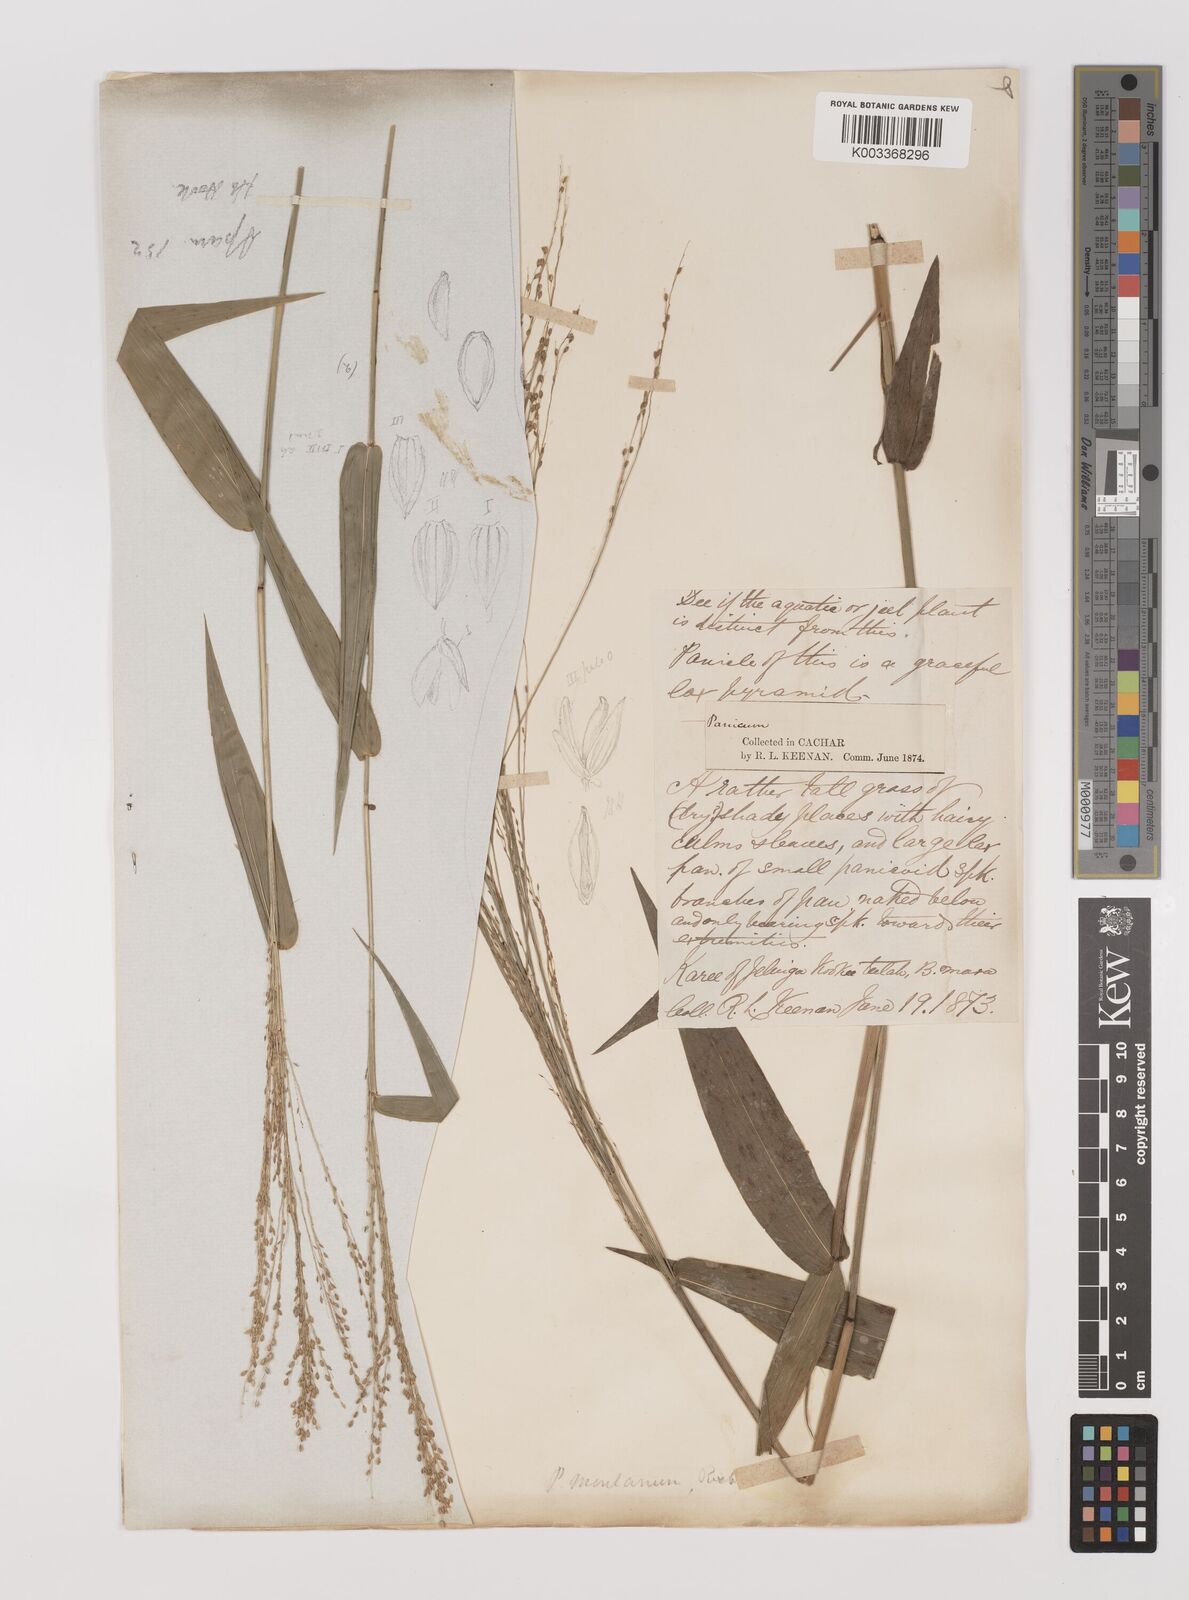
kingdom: Plantae
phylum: Tracheophyta
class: Liliopsida
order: Poales
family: Poaceae
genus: Panicum
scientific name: Panicum notatum
